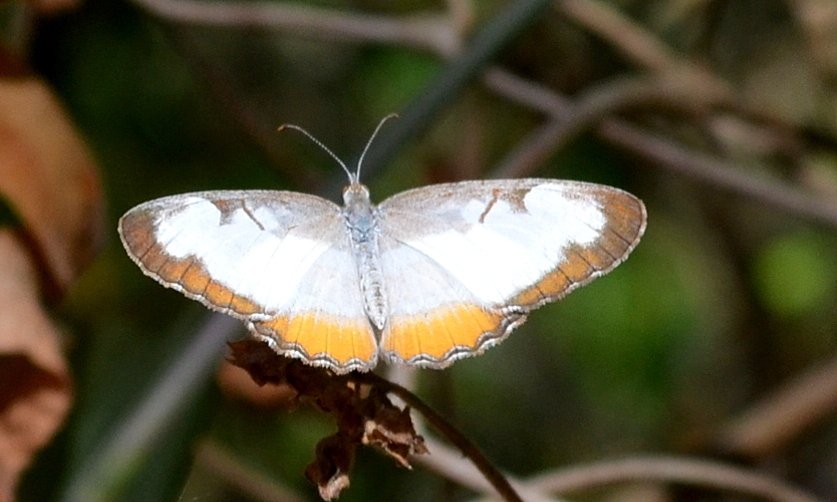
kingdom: Animalia
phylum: Arthropoda
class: Insecta
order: Lepidoptera
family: Nymphalidae
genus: Mestra
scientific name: Mestra amymone
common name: Common Mestra
